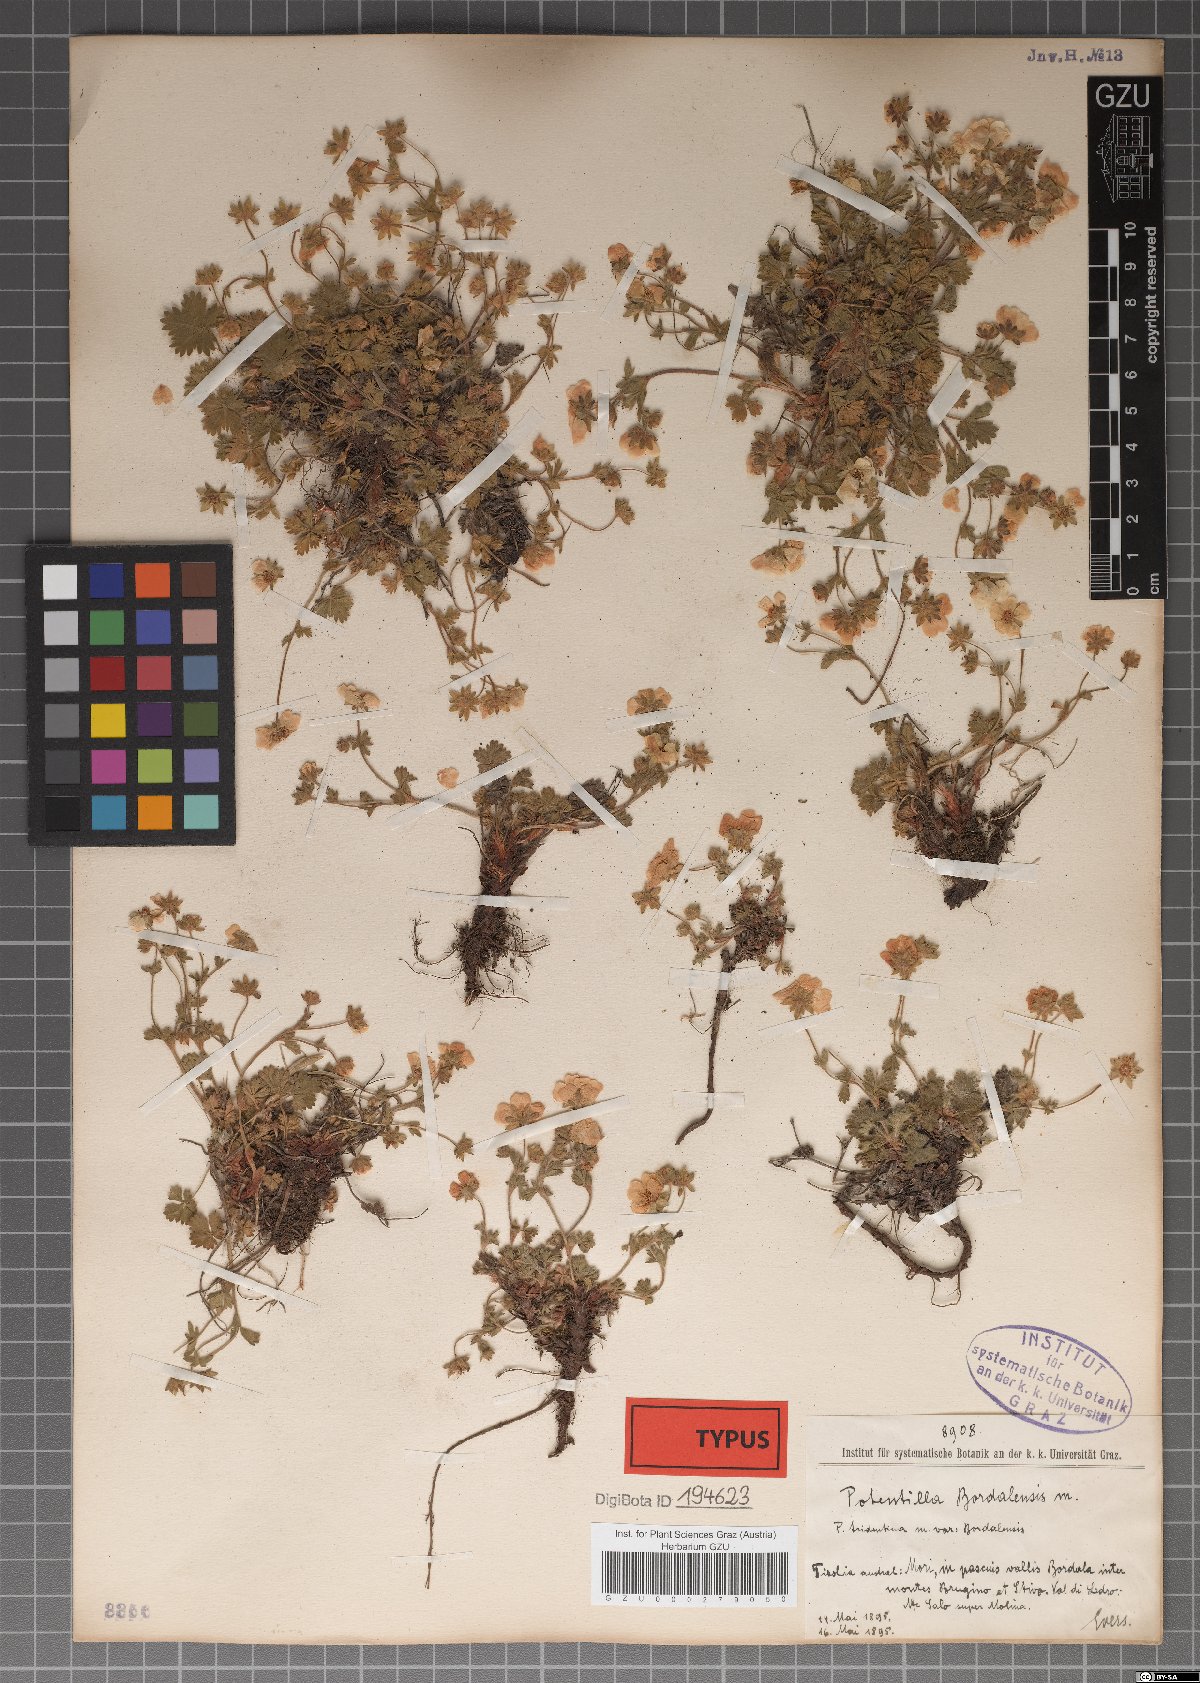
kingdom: Plantae
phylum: Tracheophyta
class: Magnoliopsida
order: Rosales
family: Rosaceae
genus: Potentilla
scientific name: Potentilla crantzii
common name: Alpine cinquefoil
